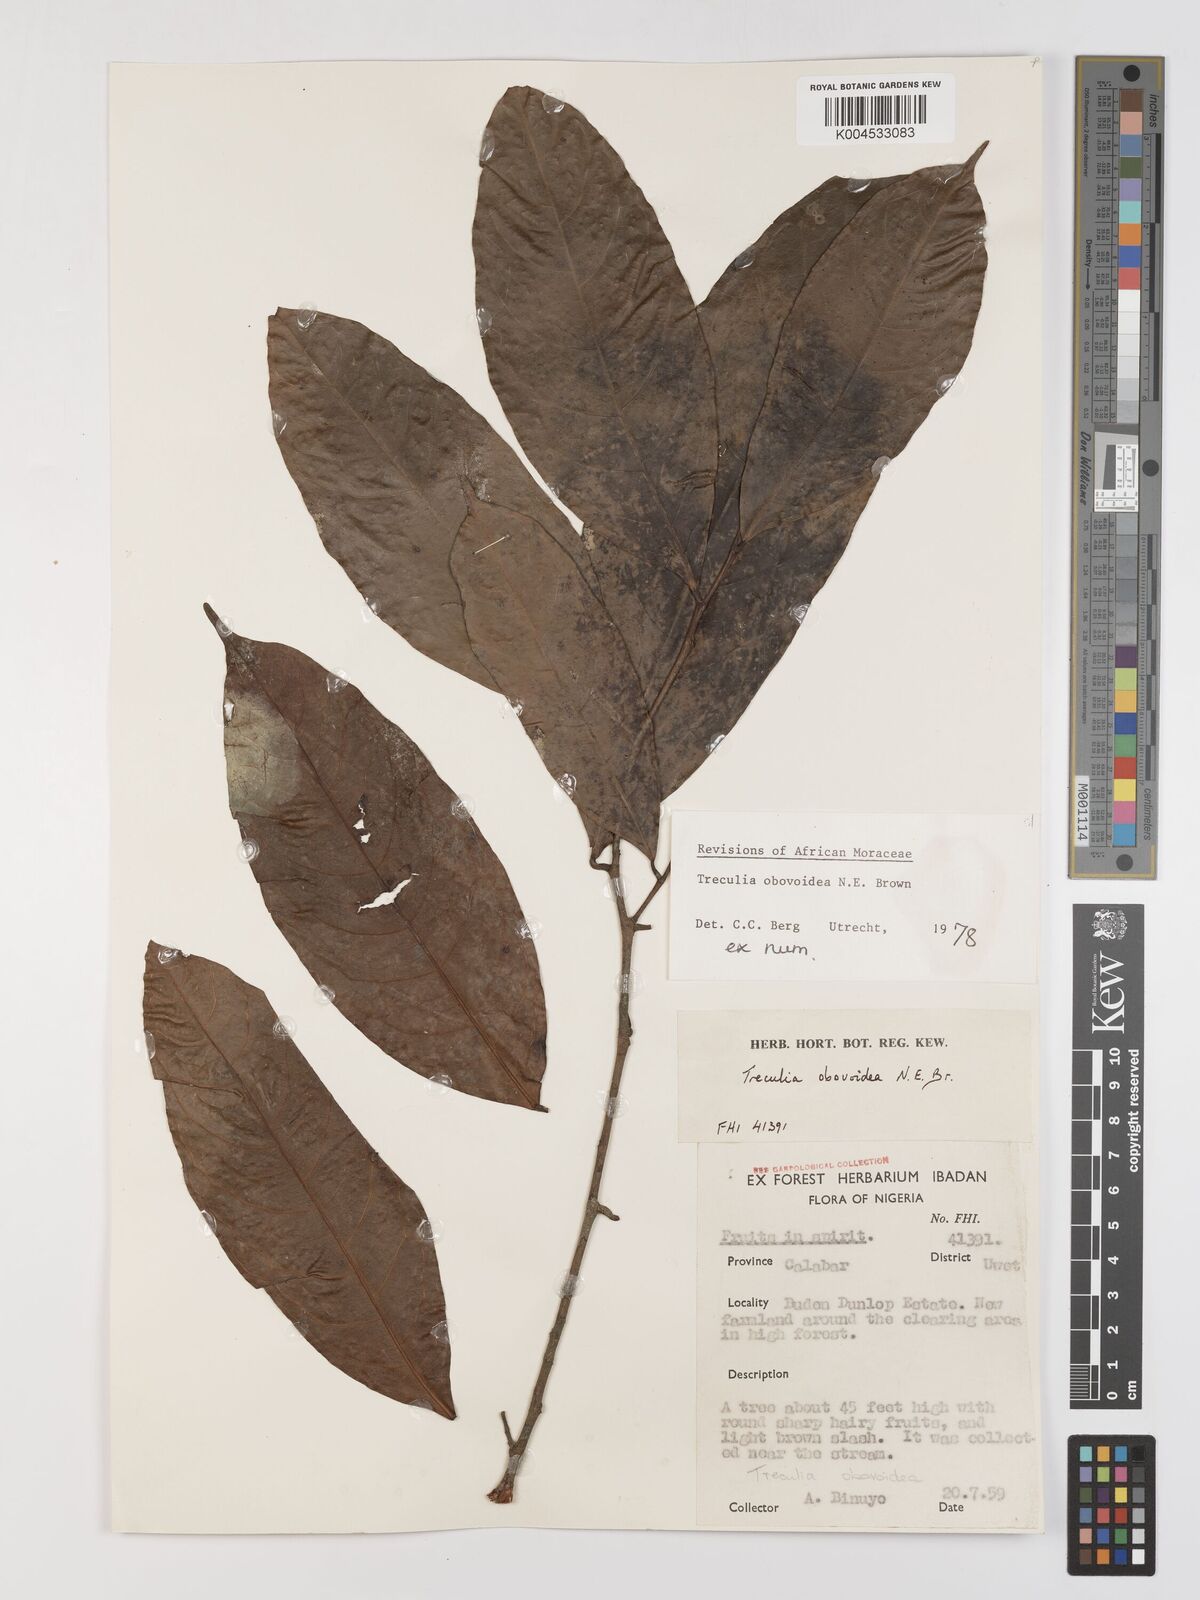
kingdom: Plantae
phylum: Tracheophyta
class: Magnoliopsida
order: Rosales
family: Moraceae
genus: Treculia
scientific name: Treculia obovoidea
